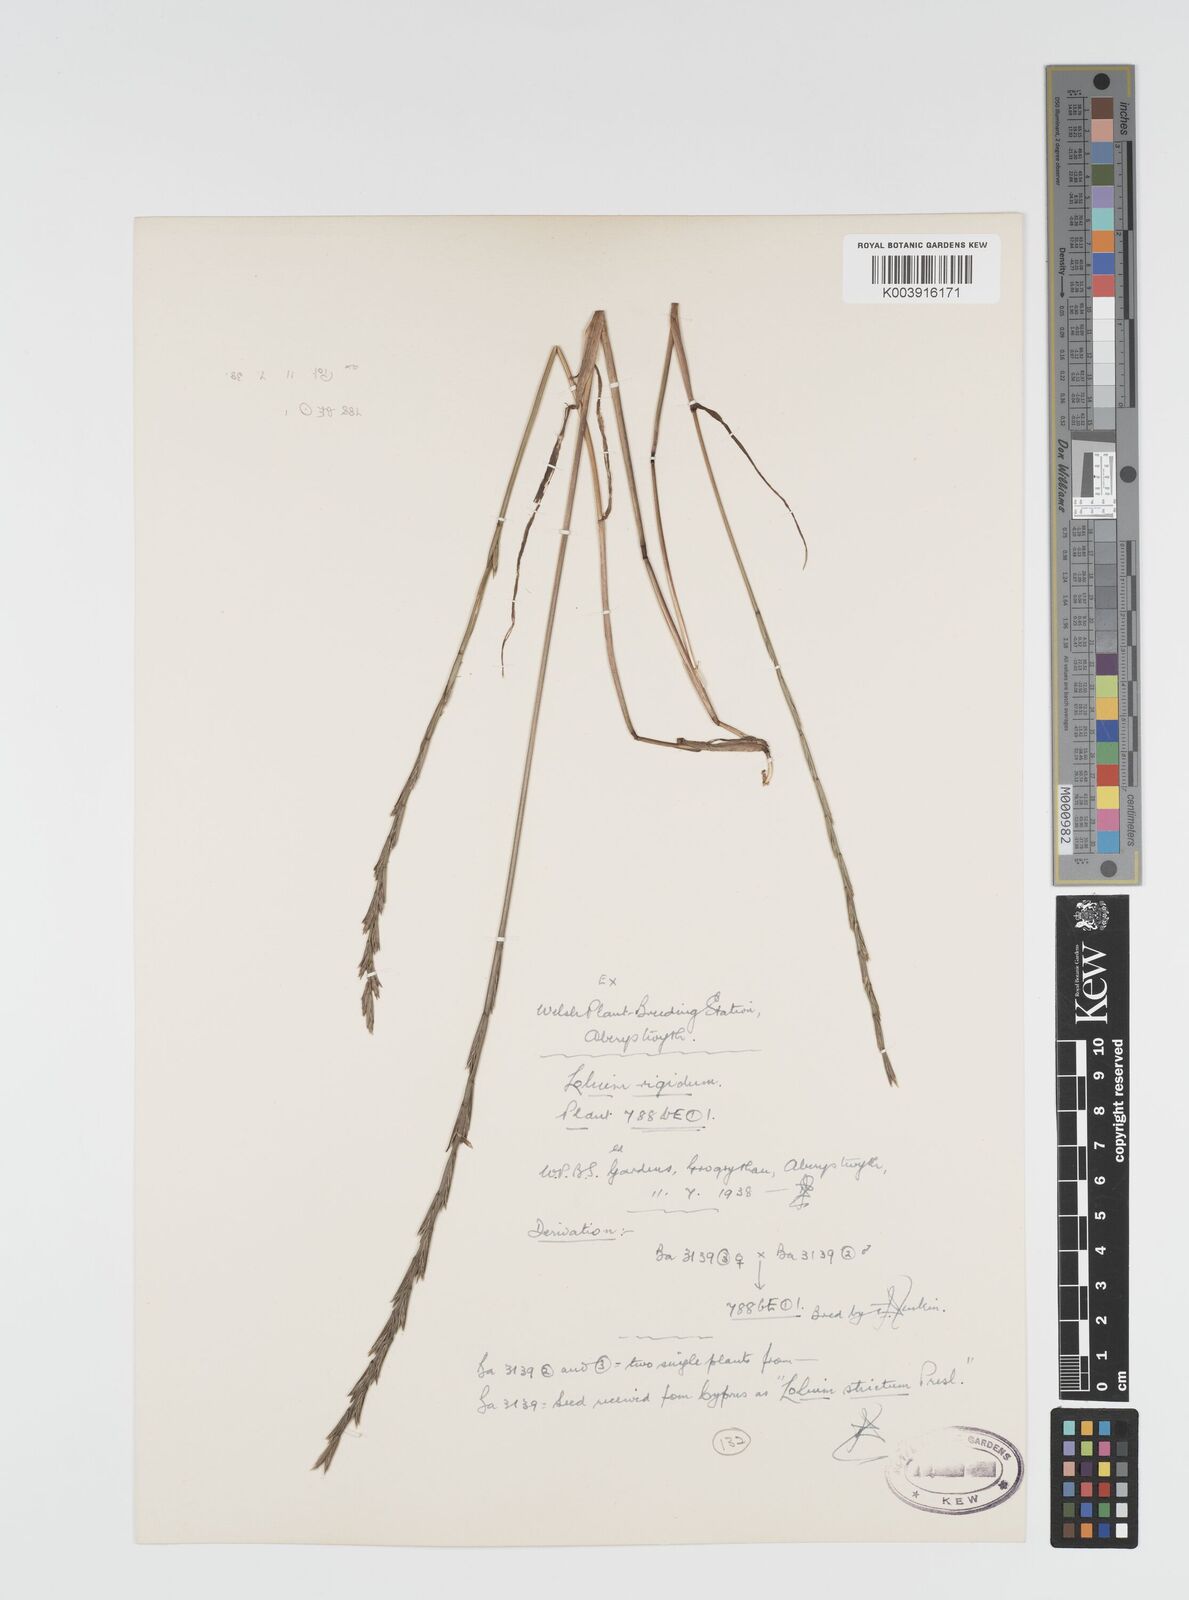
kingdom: Plantae
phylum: Tracheophyta
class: Liliopsida
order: Poales
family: Poaceae
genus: Lolium
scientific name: Lolium rigidum
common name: Wimmera ryegrass
